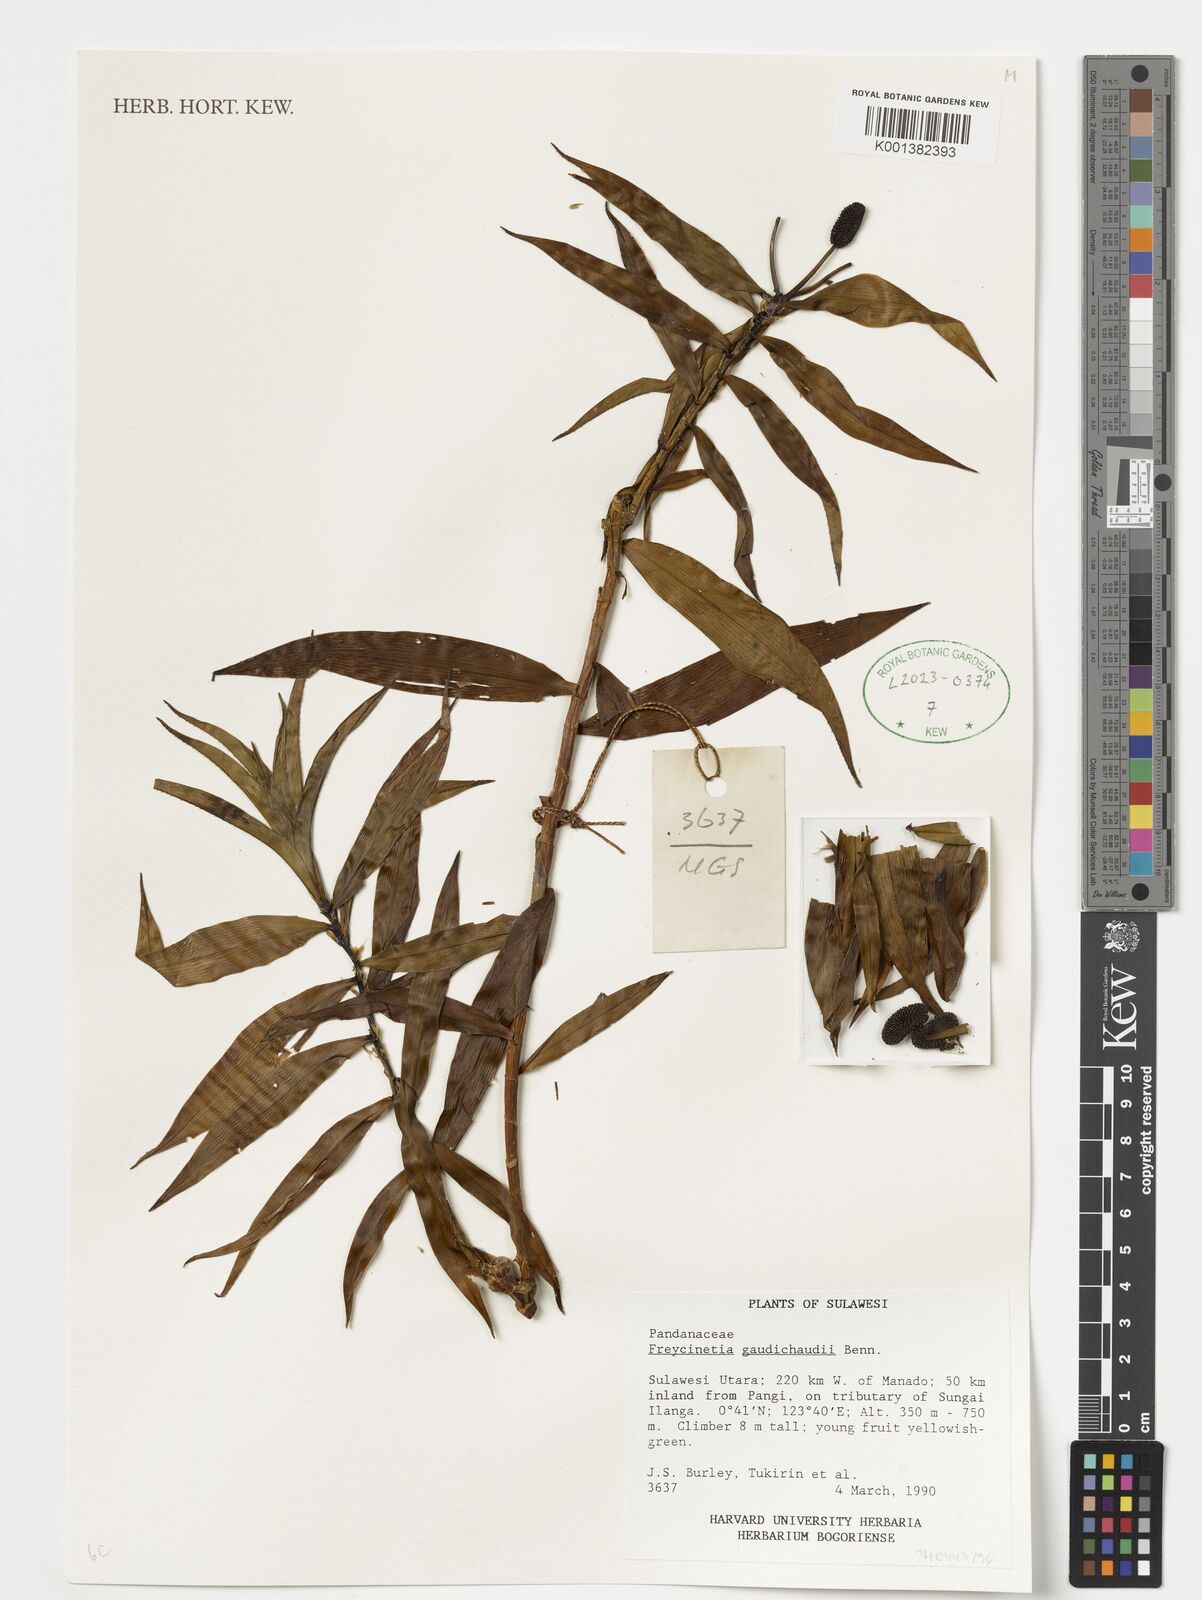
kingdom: Plantae
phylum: Tracheophyta
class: Liliopsida
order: Pandanales
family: Pandanaceae
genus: Freycinetia
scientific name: Freycinetia scandens
